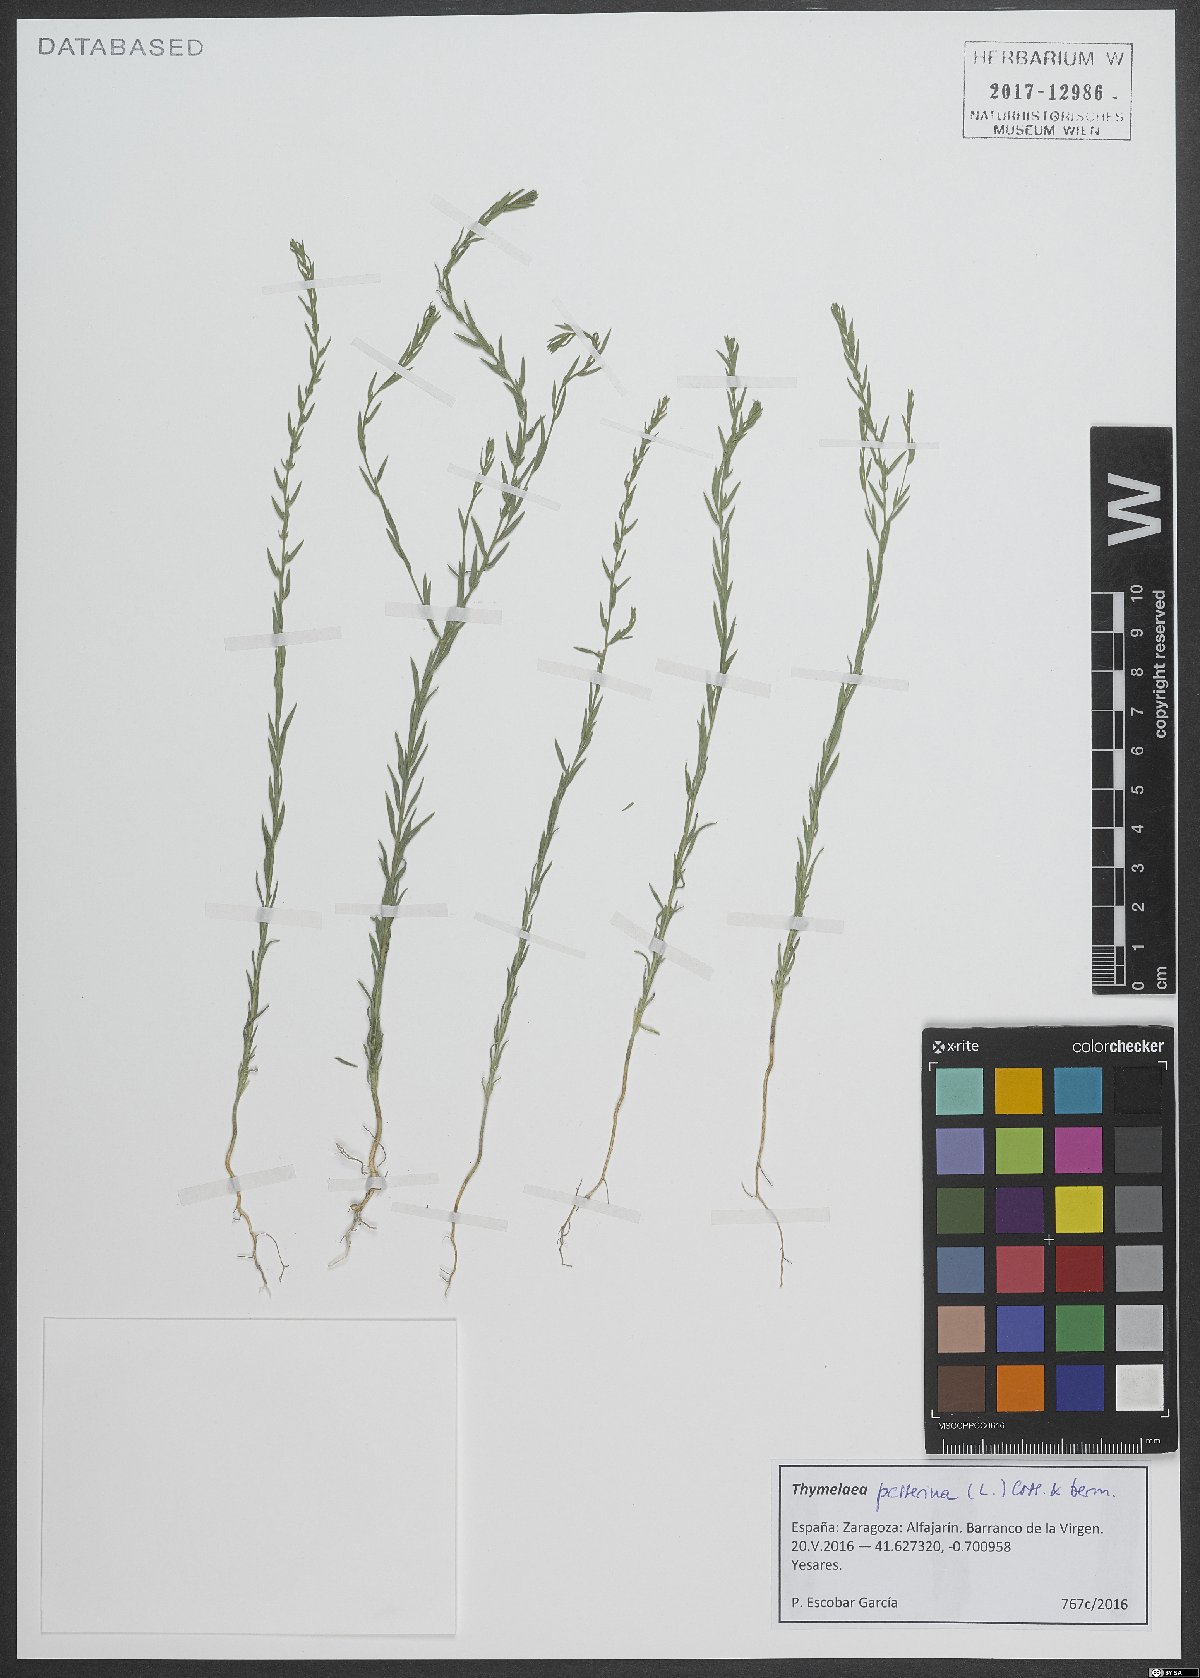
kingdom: Plantae
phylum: Tracheophyta
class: Magnoliopsida
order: Malvales
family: Thymelaeaceae
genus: Thymelaea
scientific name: Thymelaea passerina
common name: Annual thymelaea
